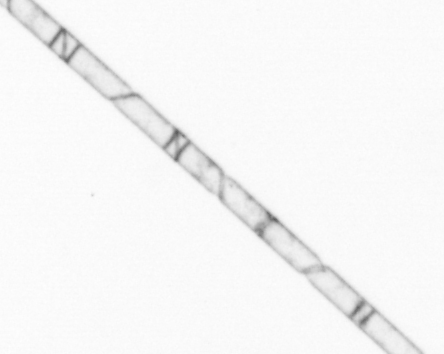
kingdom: Chromista
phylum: Ochrophyta
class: Bacillariophyceae
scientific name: Bacillariophyceae
